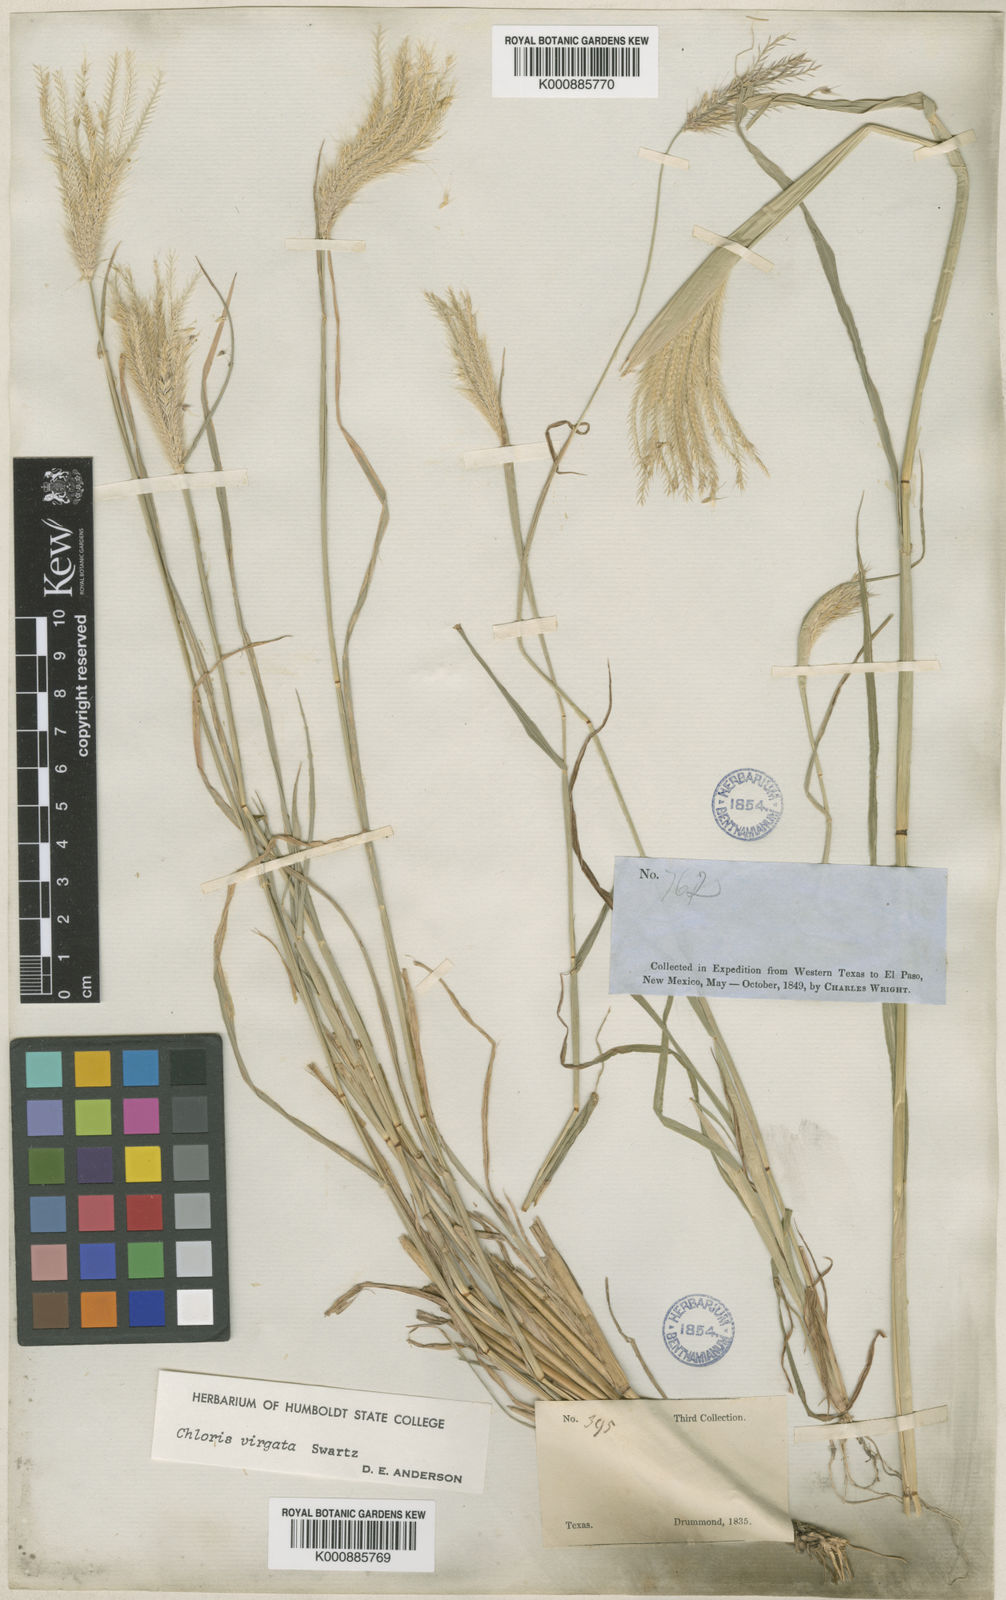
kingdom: Plantae
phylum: Tracheophyta
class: Liliopsida
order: Poales
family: Poaceae
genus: Chloris
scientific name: Chloris virgata
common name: Feathery rhodes-grass
